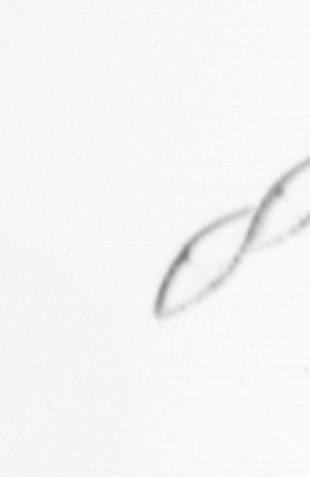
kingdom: Chromista
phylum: Myzozoa
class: Dinophyceae
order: Noctilucales
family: Noctilucaceae
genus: Noctiluca
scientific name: Noctiluca scintillans
